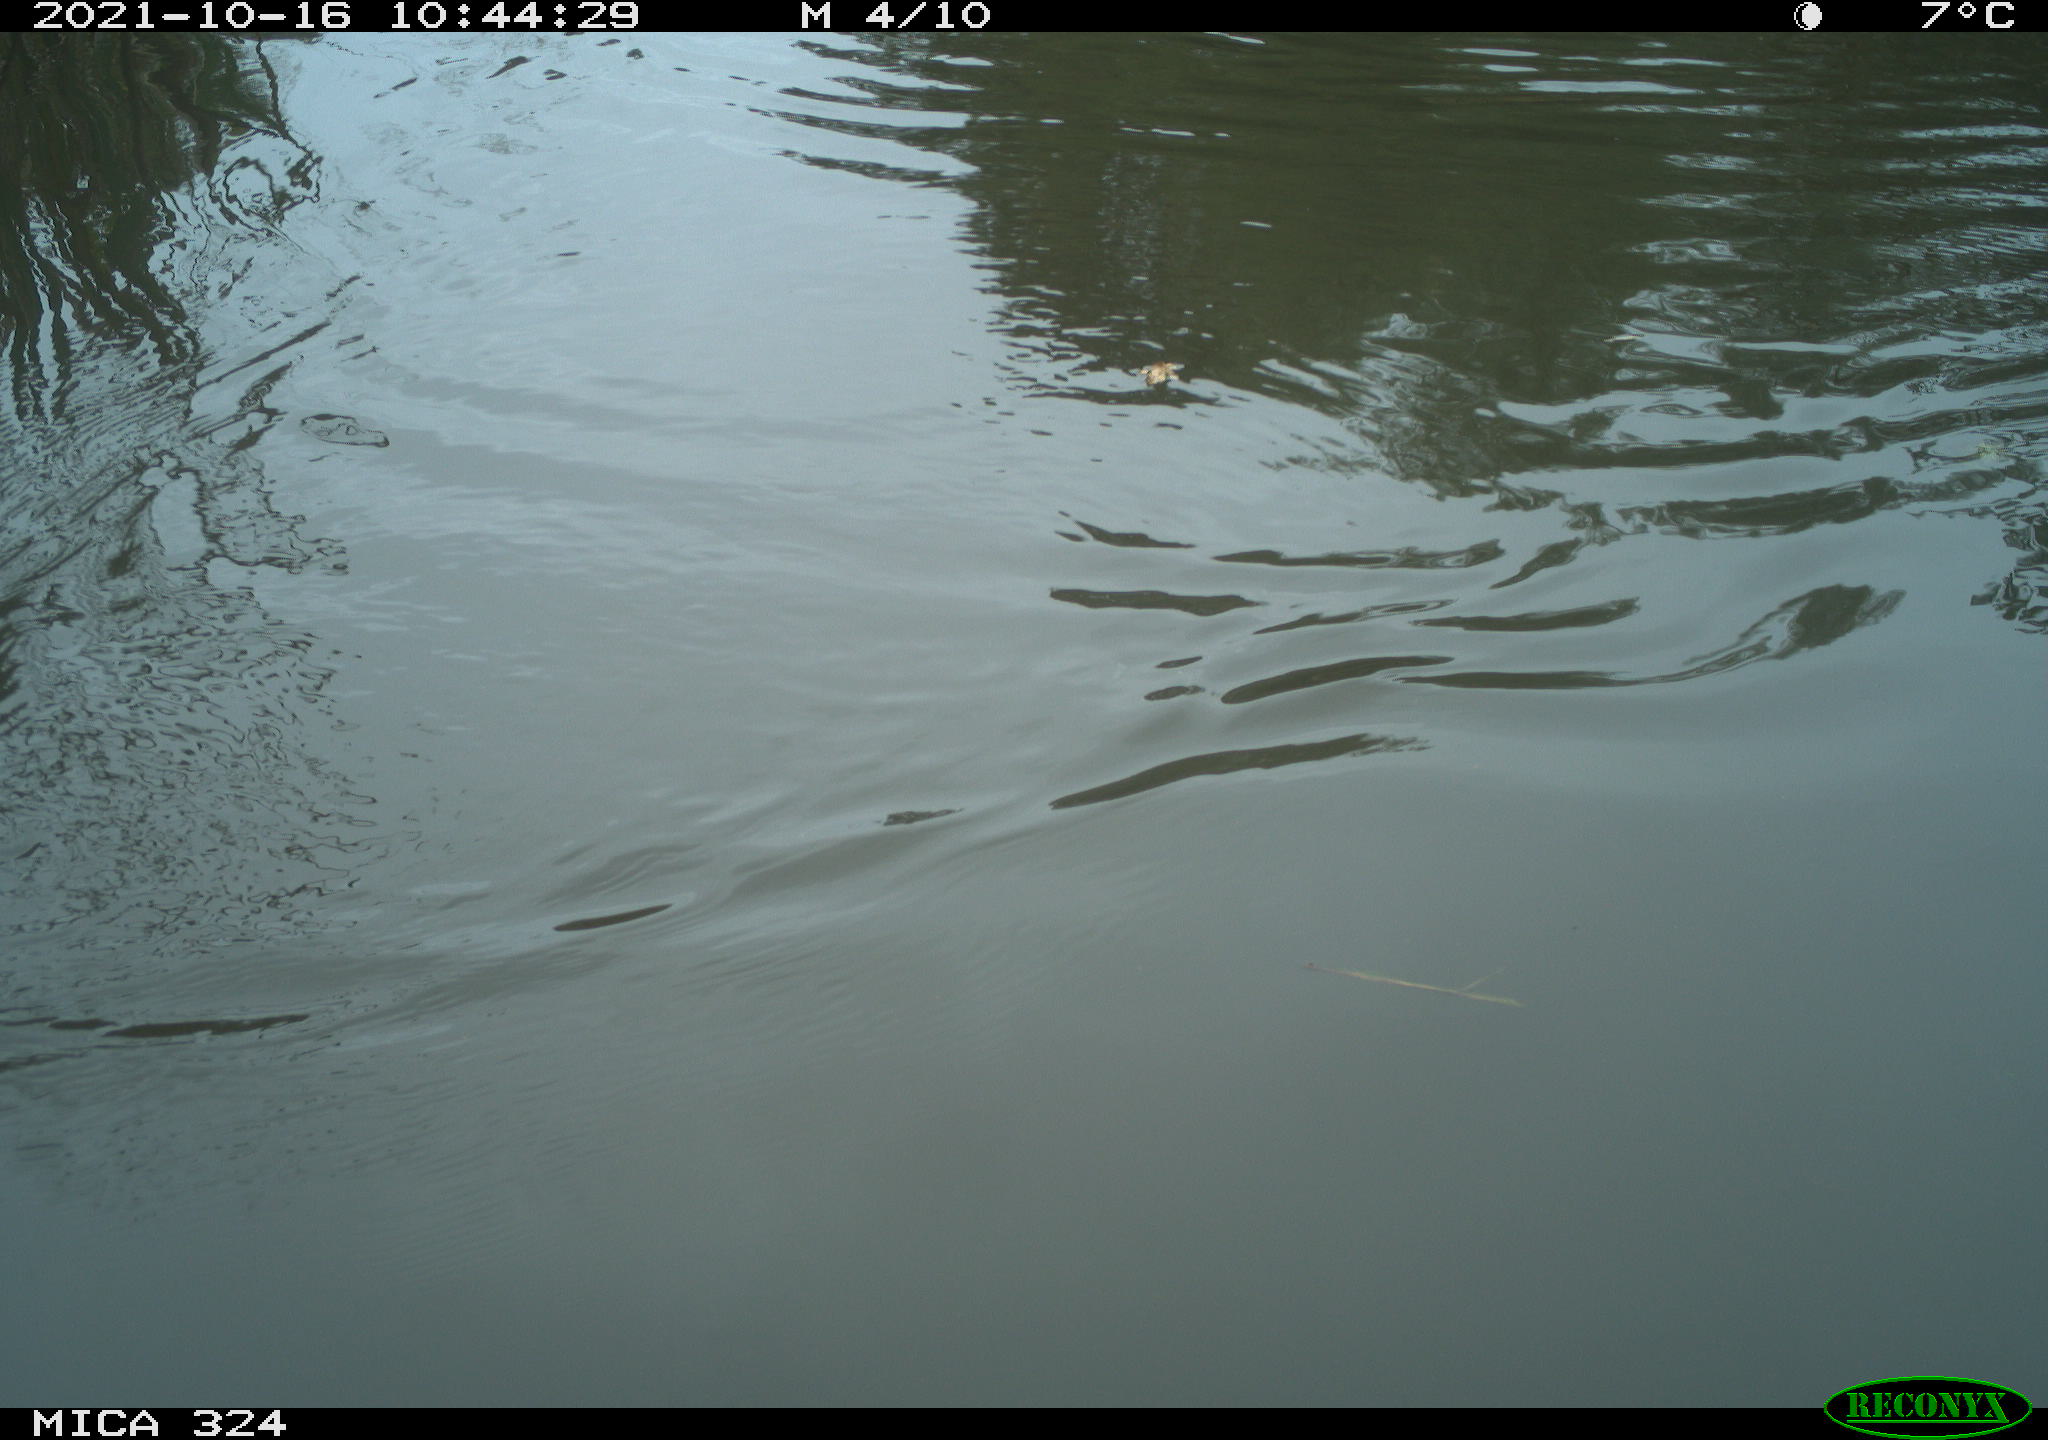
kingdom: Animalia
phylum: Chordata
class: Aves
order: Gruiformes
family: Rallidae
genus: Gallinula
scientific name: Gallinula chloropus
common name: Common moorhen
